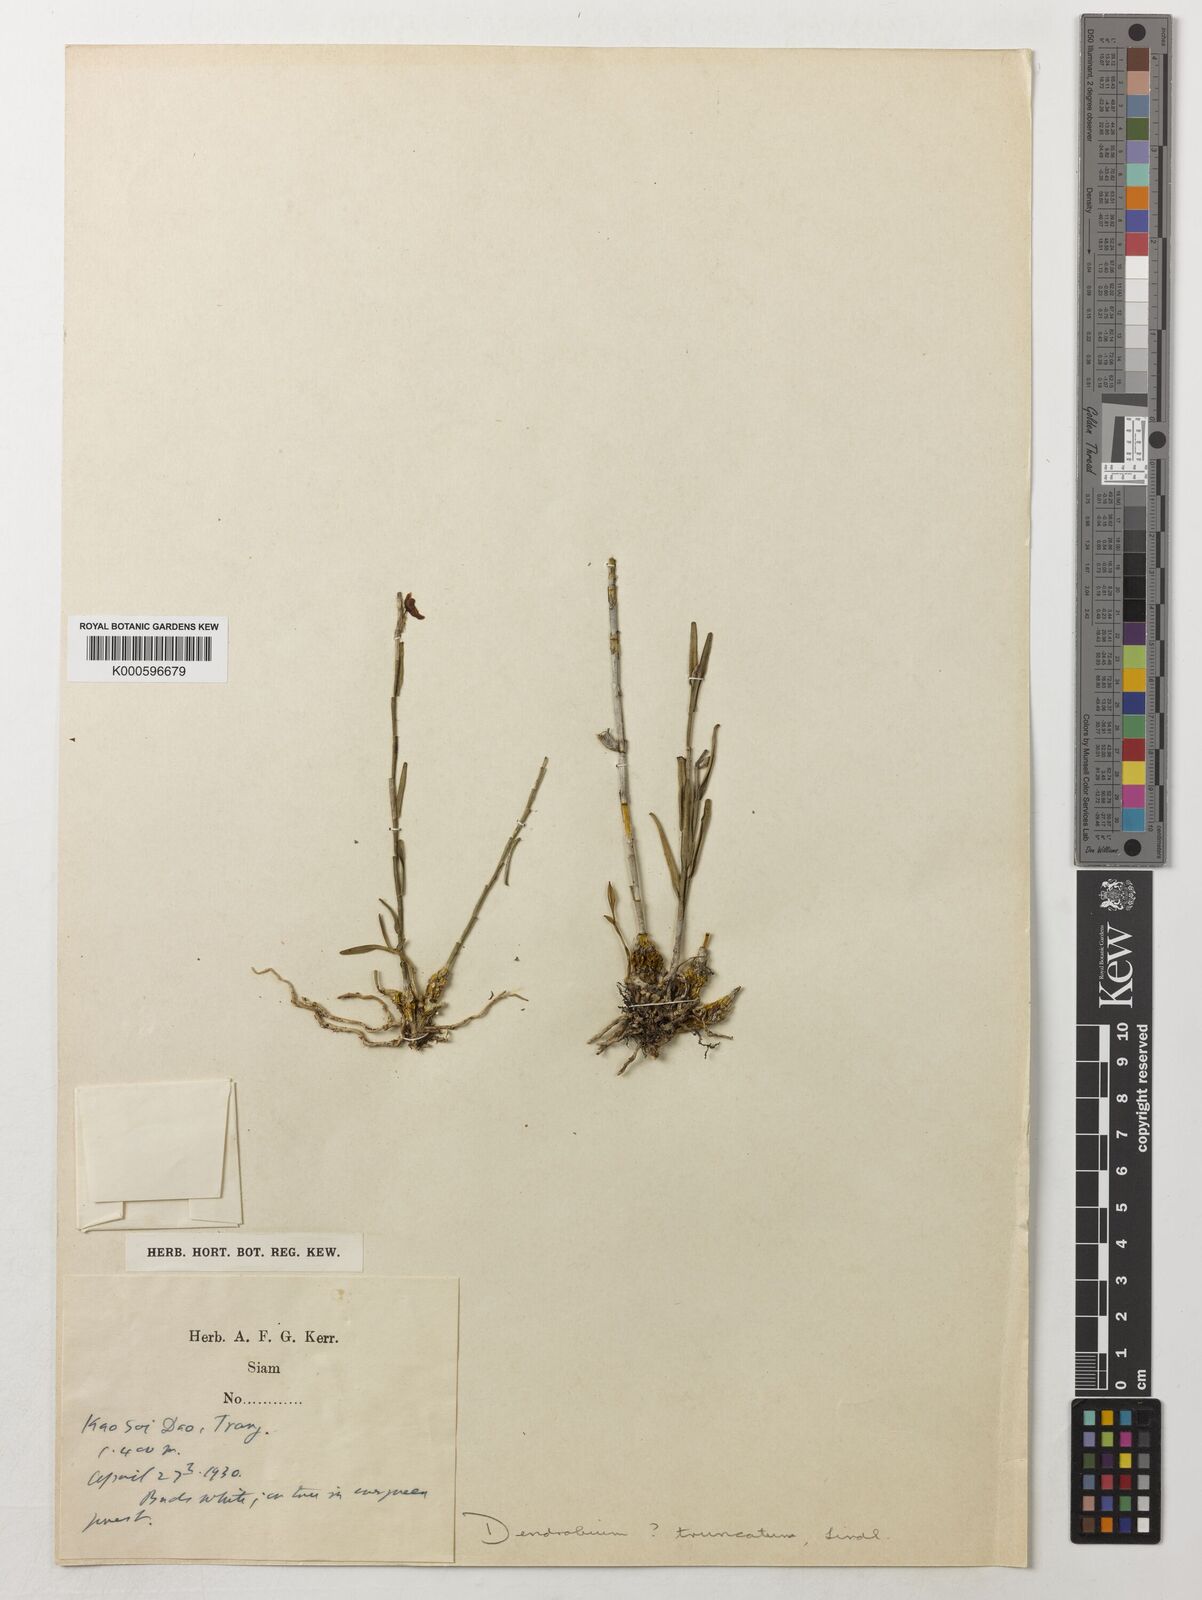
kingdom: Plantae
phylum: Tracheophyta
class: Liliopsida
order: Asparagales
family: Orchidaceae
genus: Dendrobium
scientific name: Dendrobium truncatum
